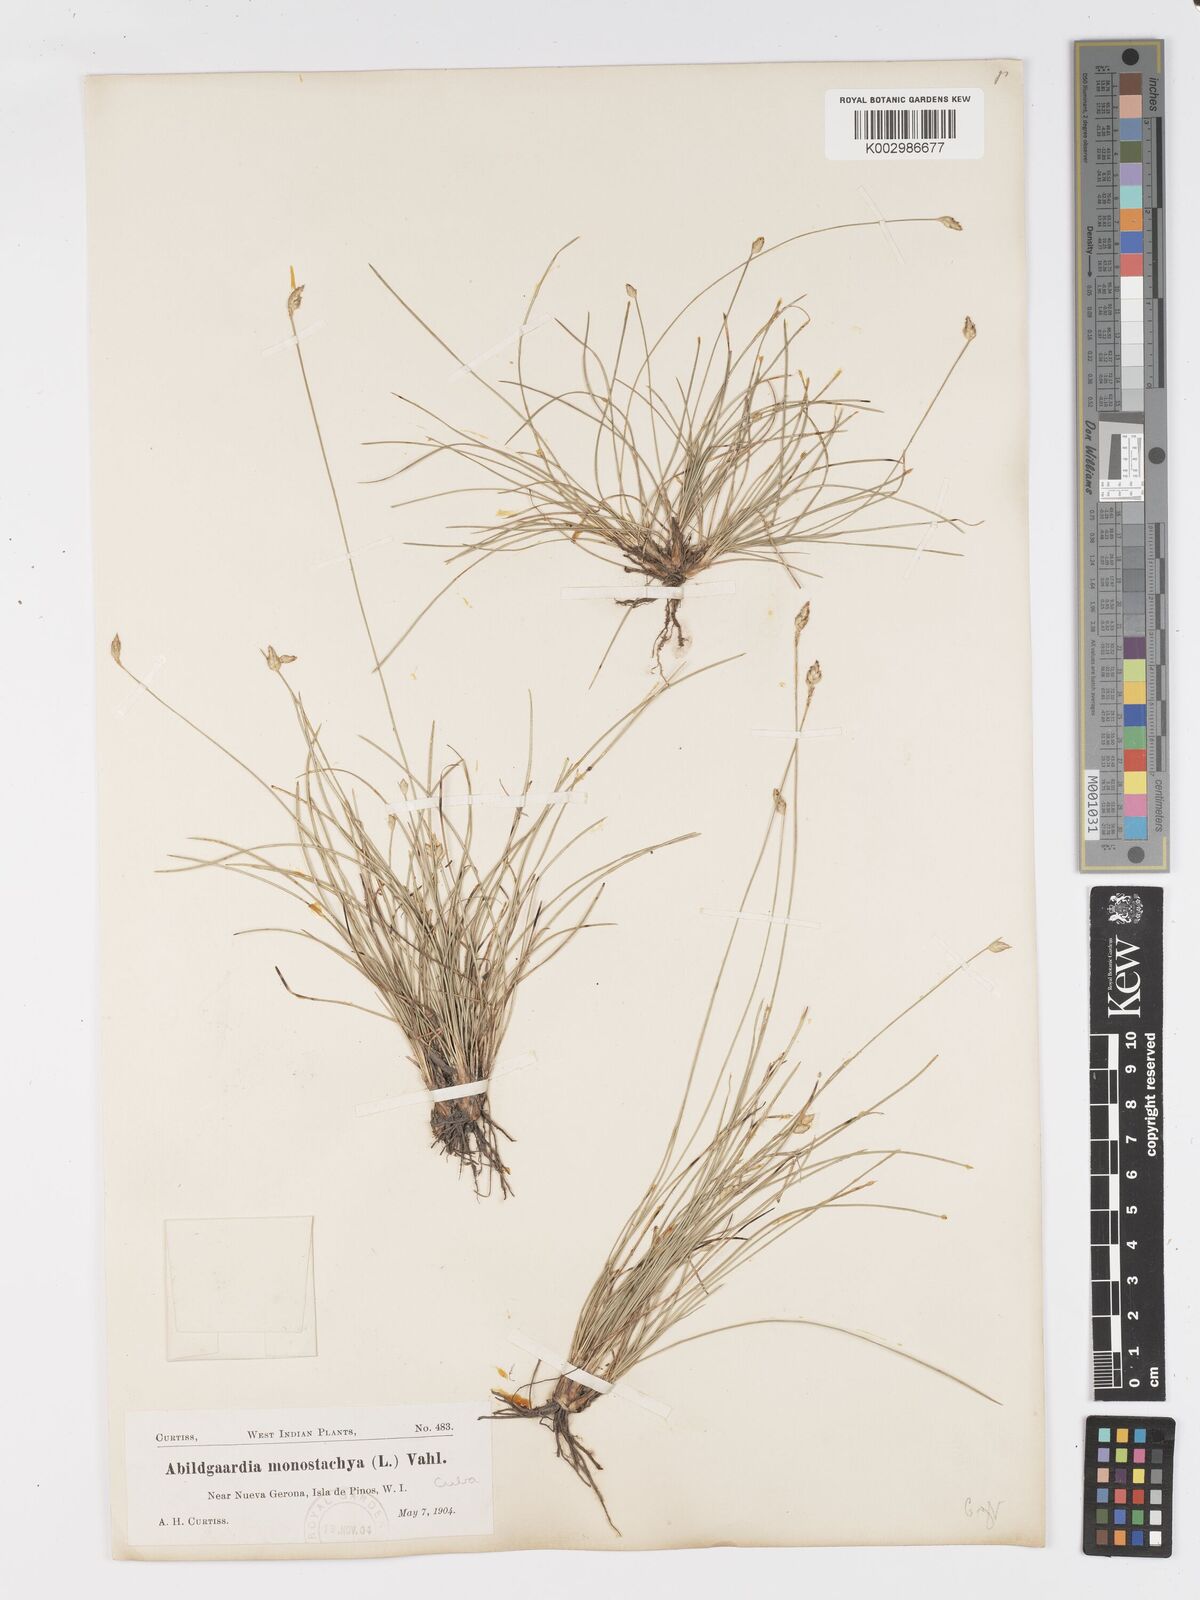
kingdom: Plantae
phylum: Tracheophyta
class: Liliopsida
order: Poales
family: Cyperaceae
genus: Abildgaardia
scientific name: Abildgaardia ovata
